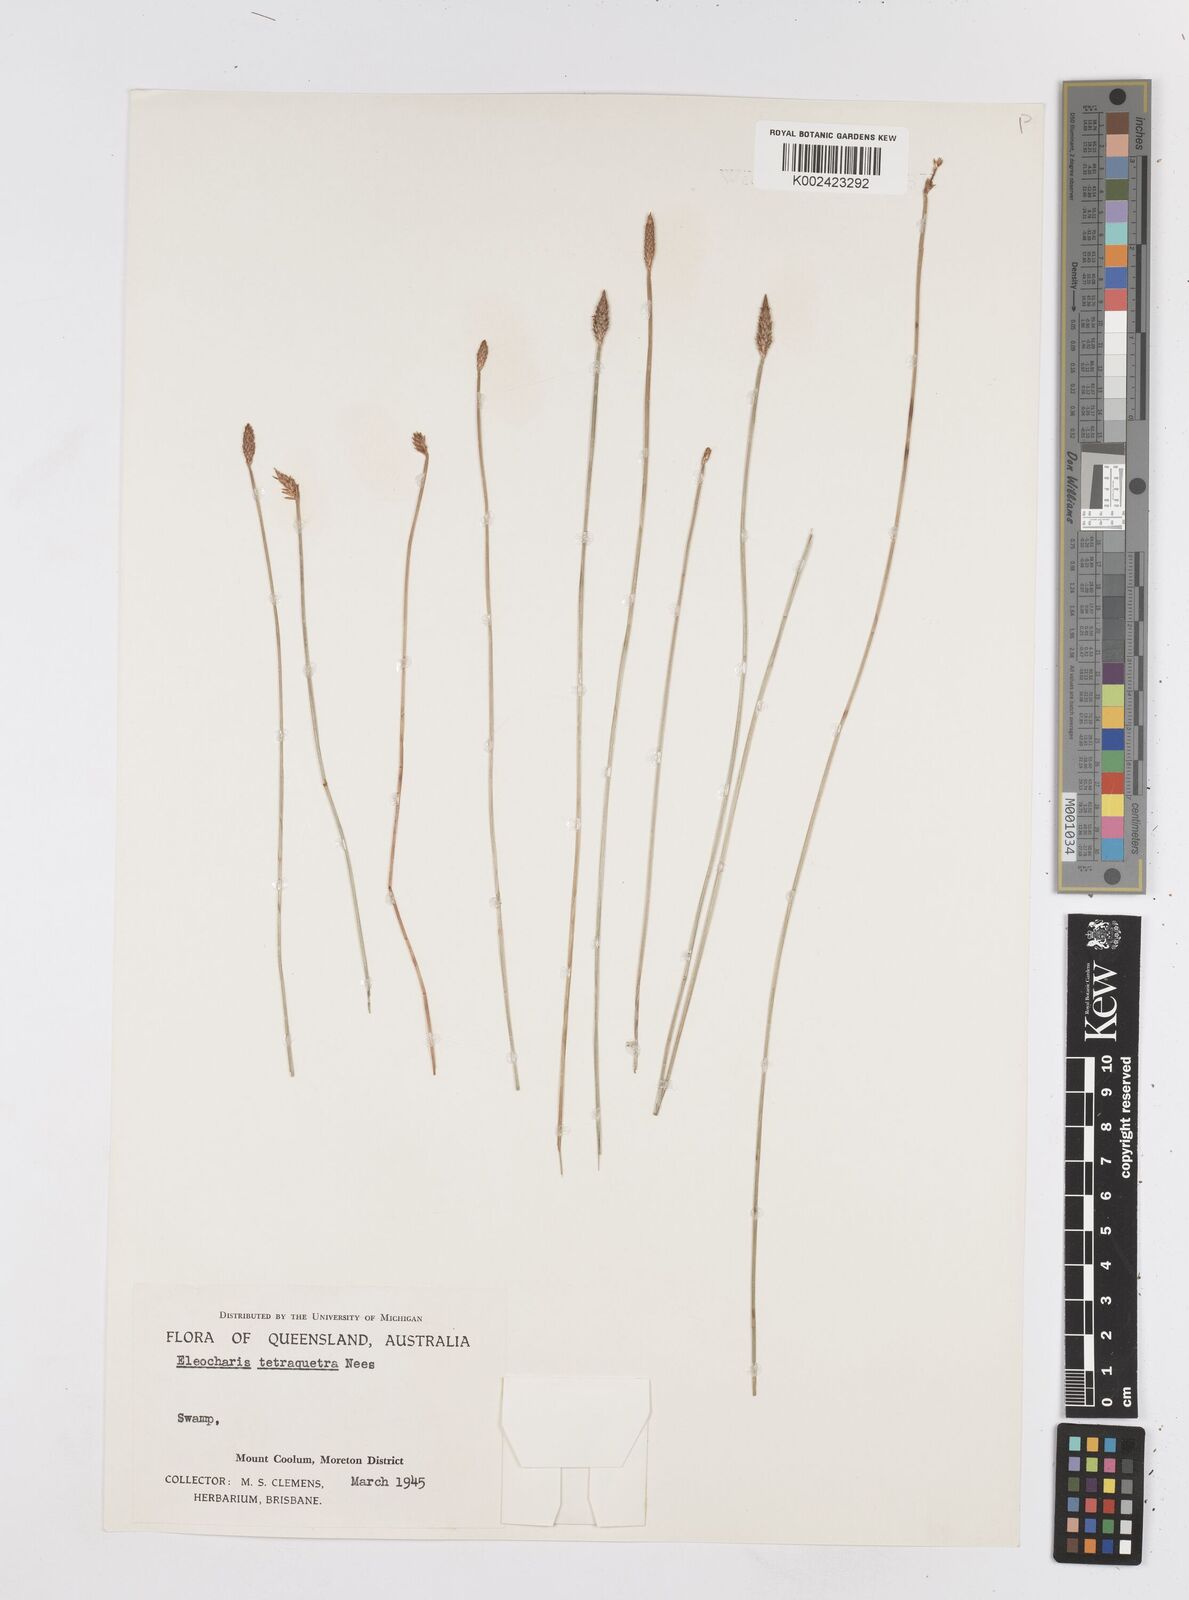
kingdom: Plantae
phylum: Tracheophyta
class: Liliopsida
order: Poales
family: Cyperaceae
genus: Eleocharis
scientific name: Eleocharis tetraquetra
